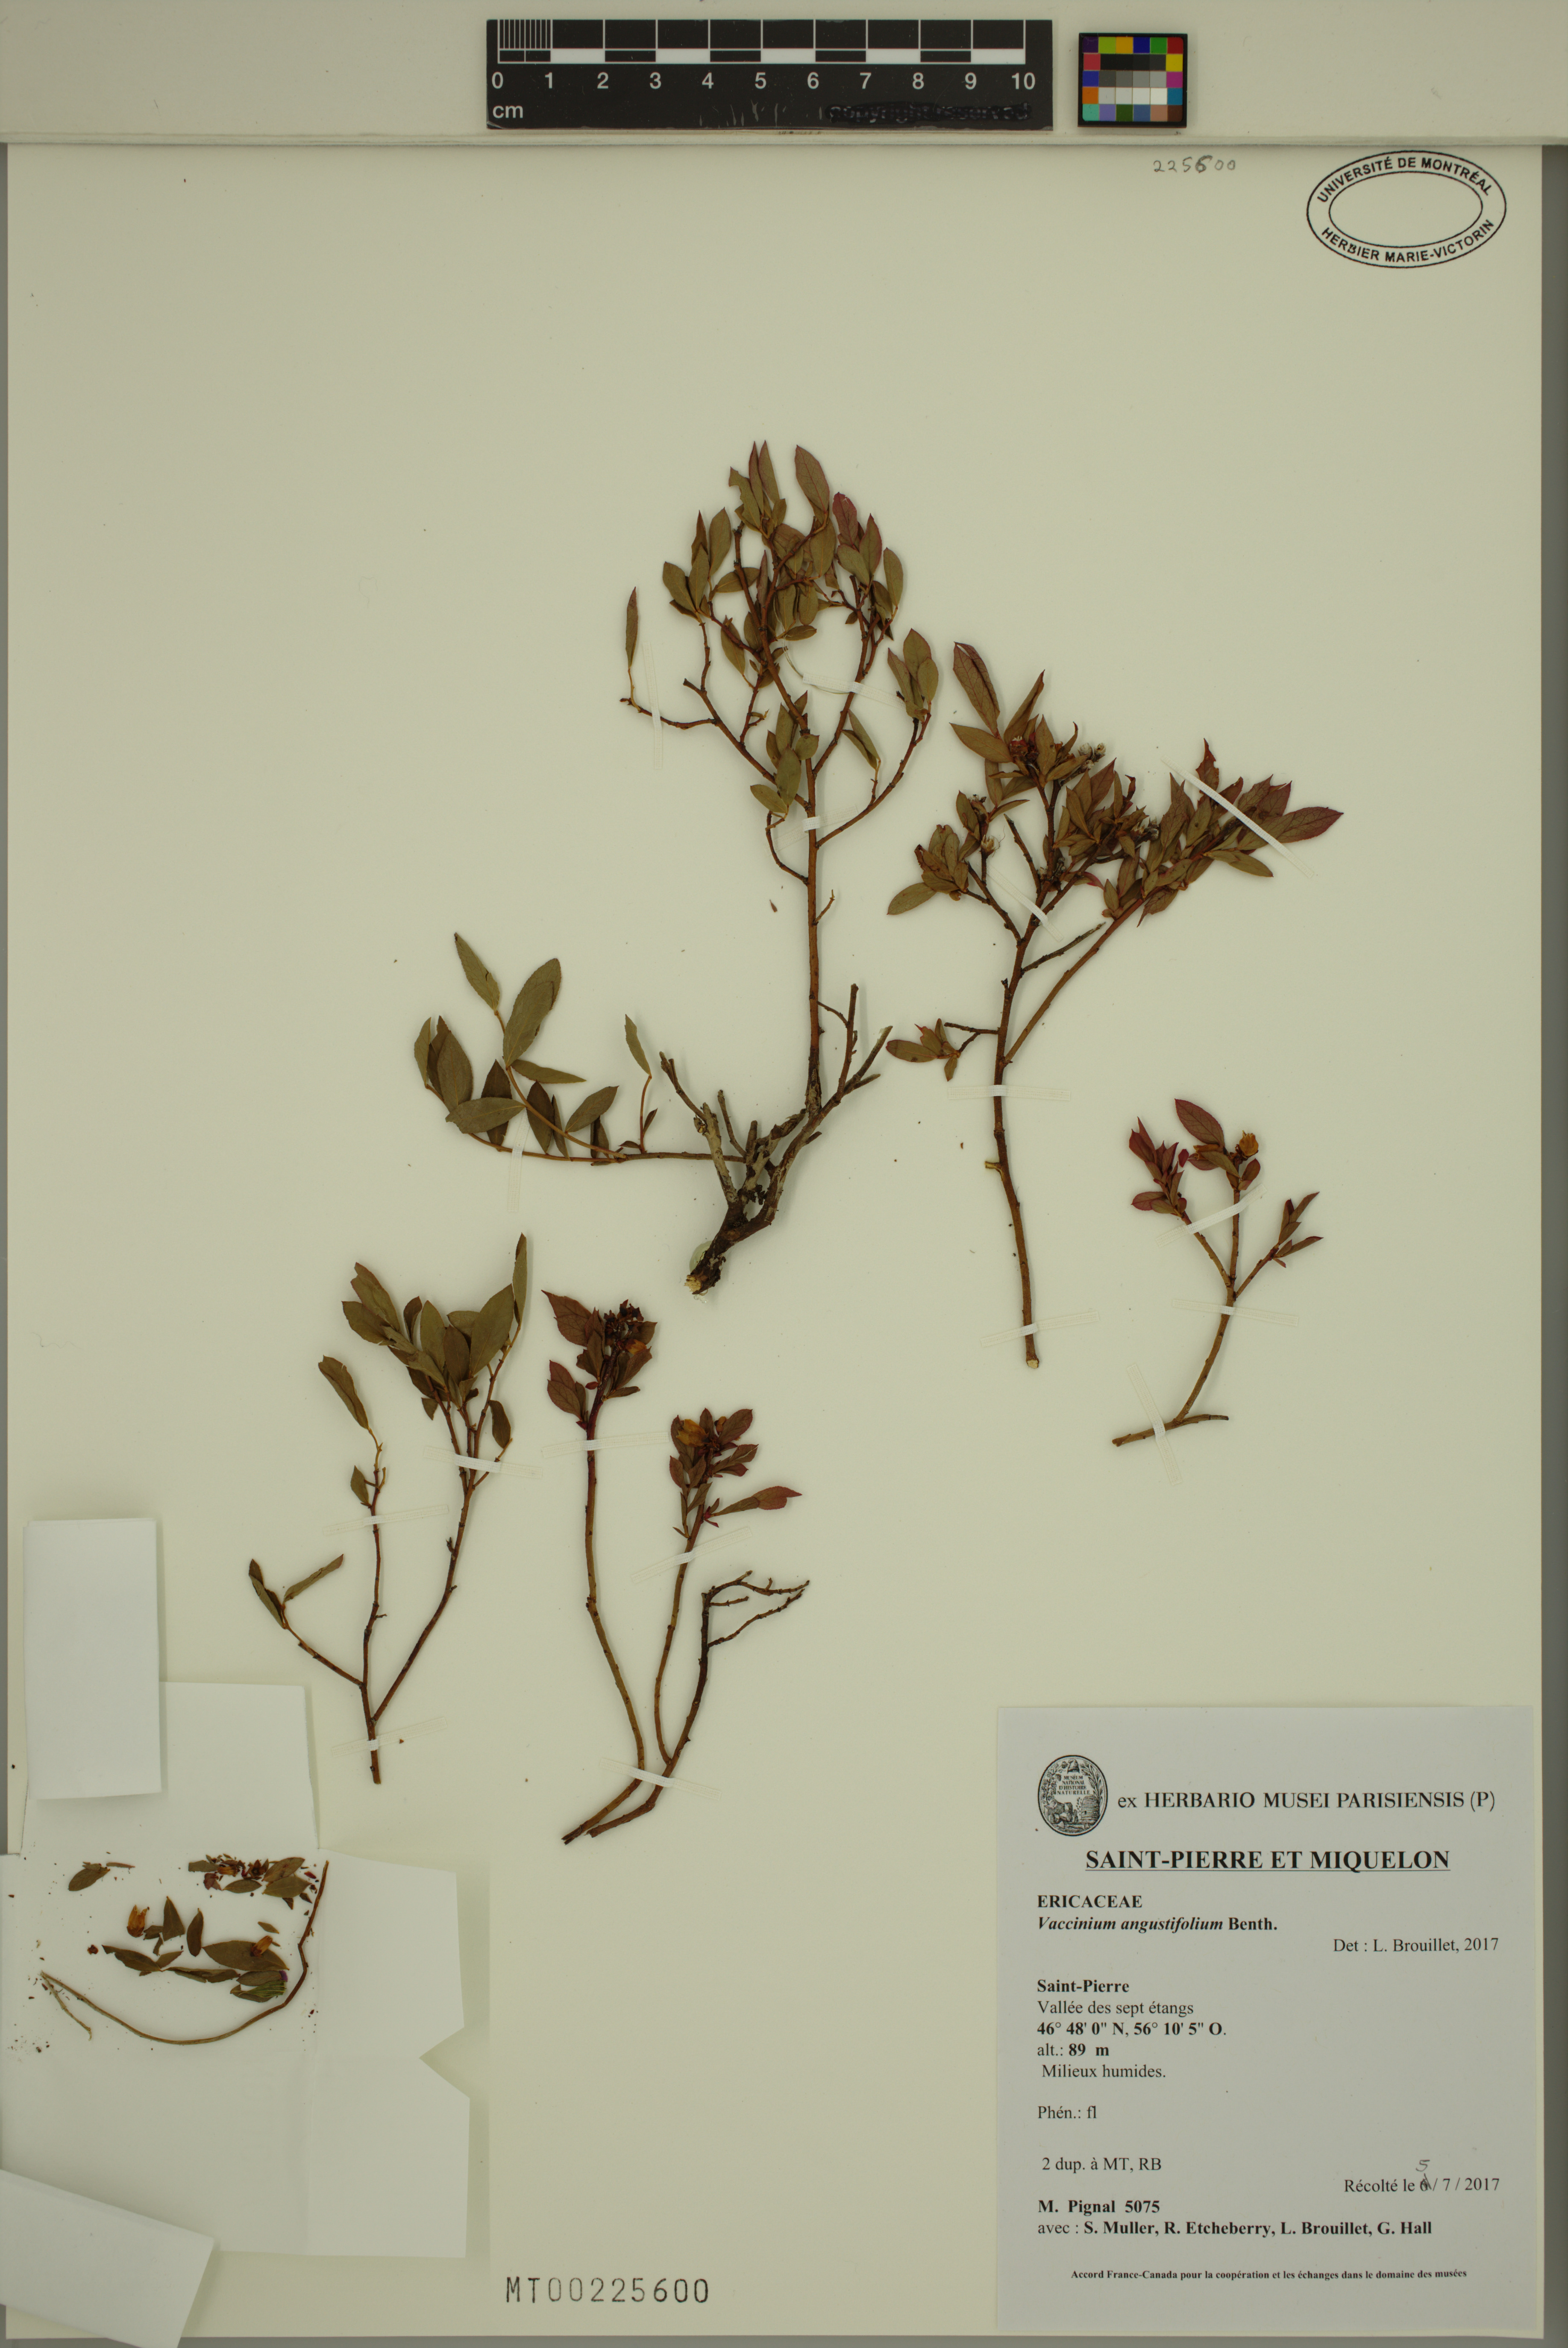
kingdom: Plantae
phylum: Tracheophyta
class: Magnoliopsida
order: Ericales
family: Ericaceae
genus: Vaccinium
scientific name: Vaccinium angustifolium
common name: Early lowbush blueberry
